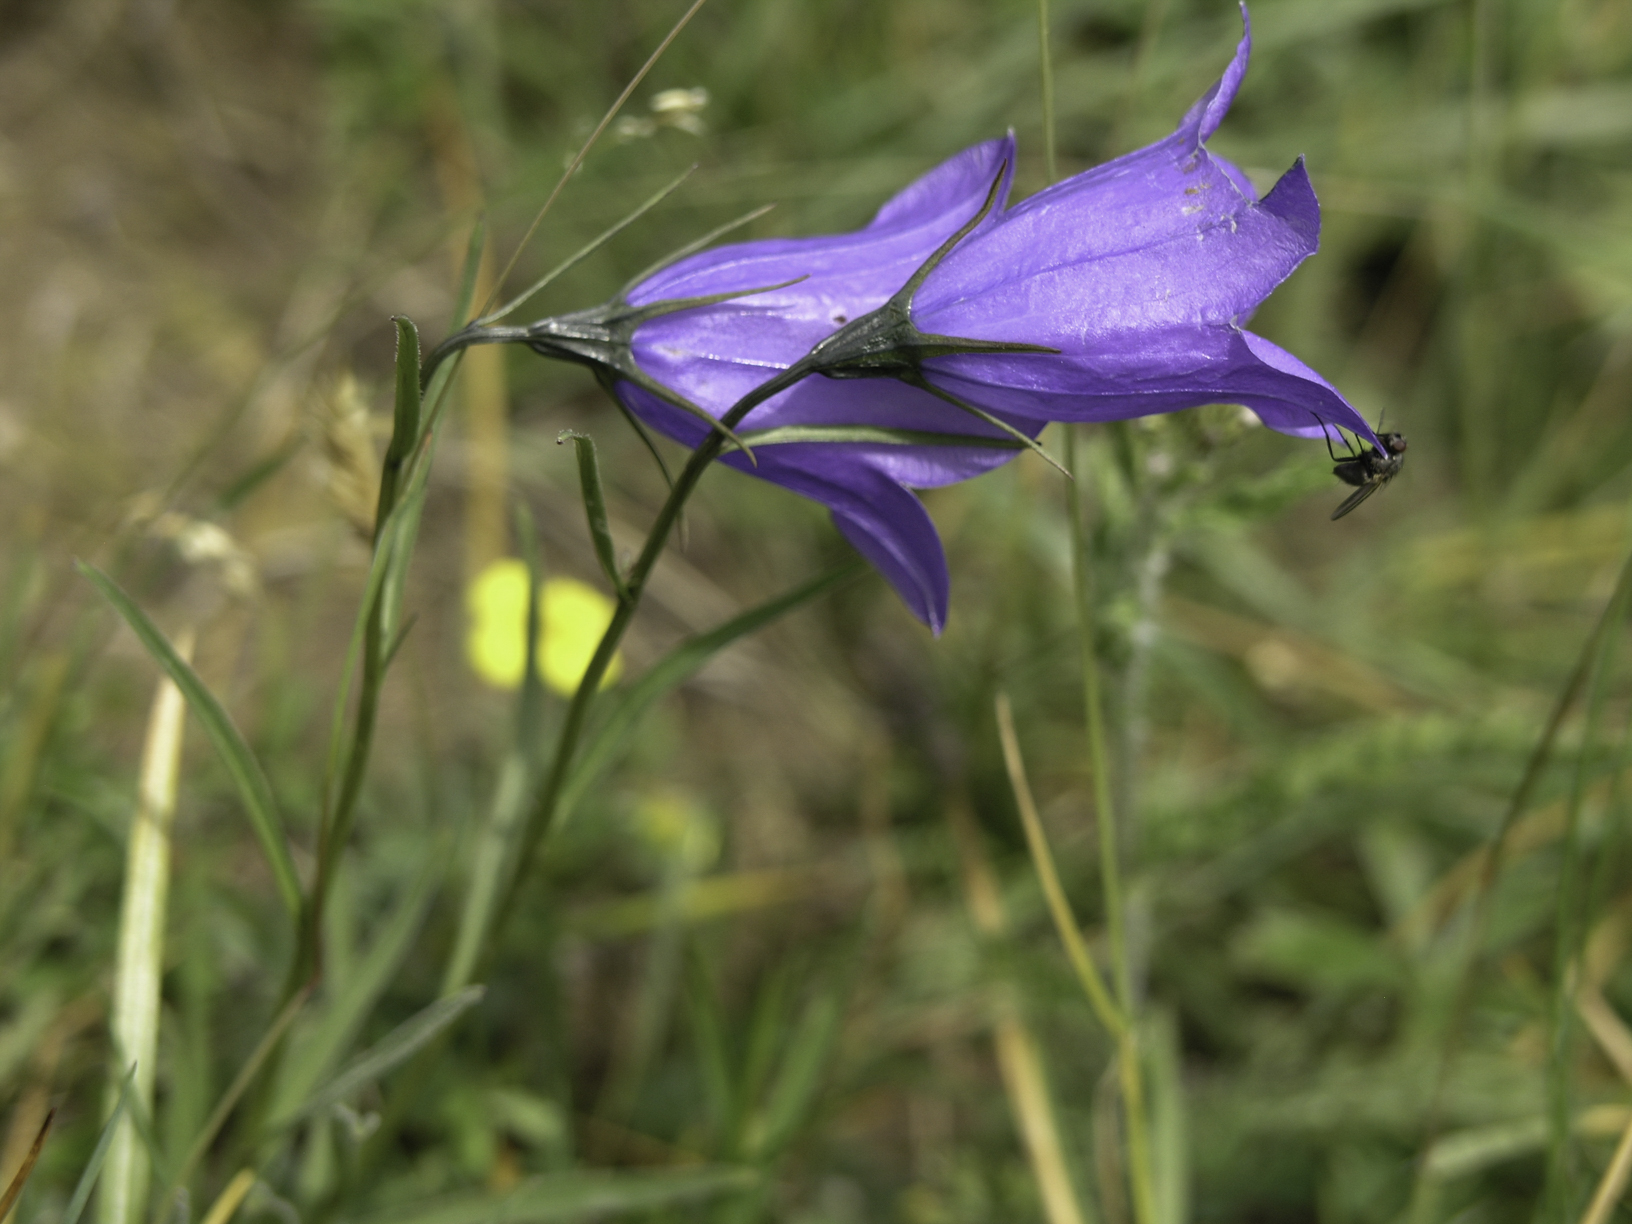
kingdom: Plantae
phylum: Tracheophyta
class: Magnoliopsida
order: Asterales
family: Campanulaceae
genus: Campanula
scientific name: Campanula cochleariifolia
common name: Fairies'-thimbles
